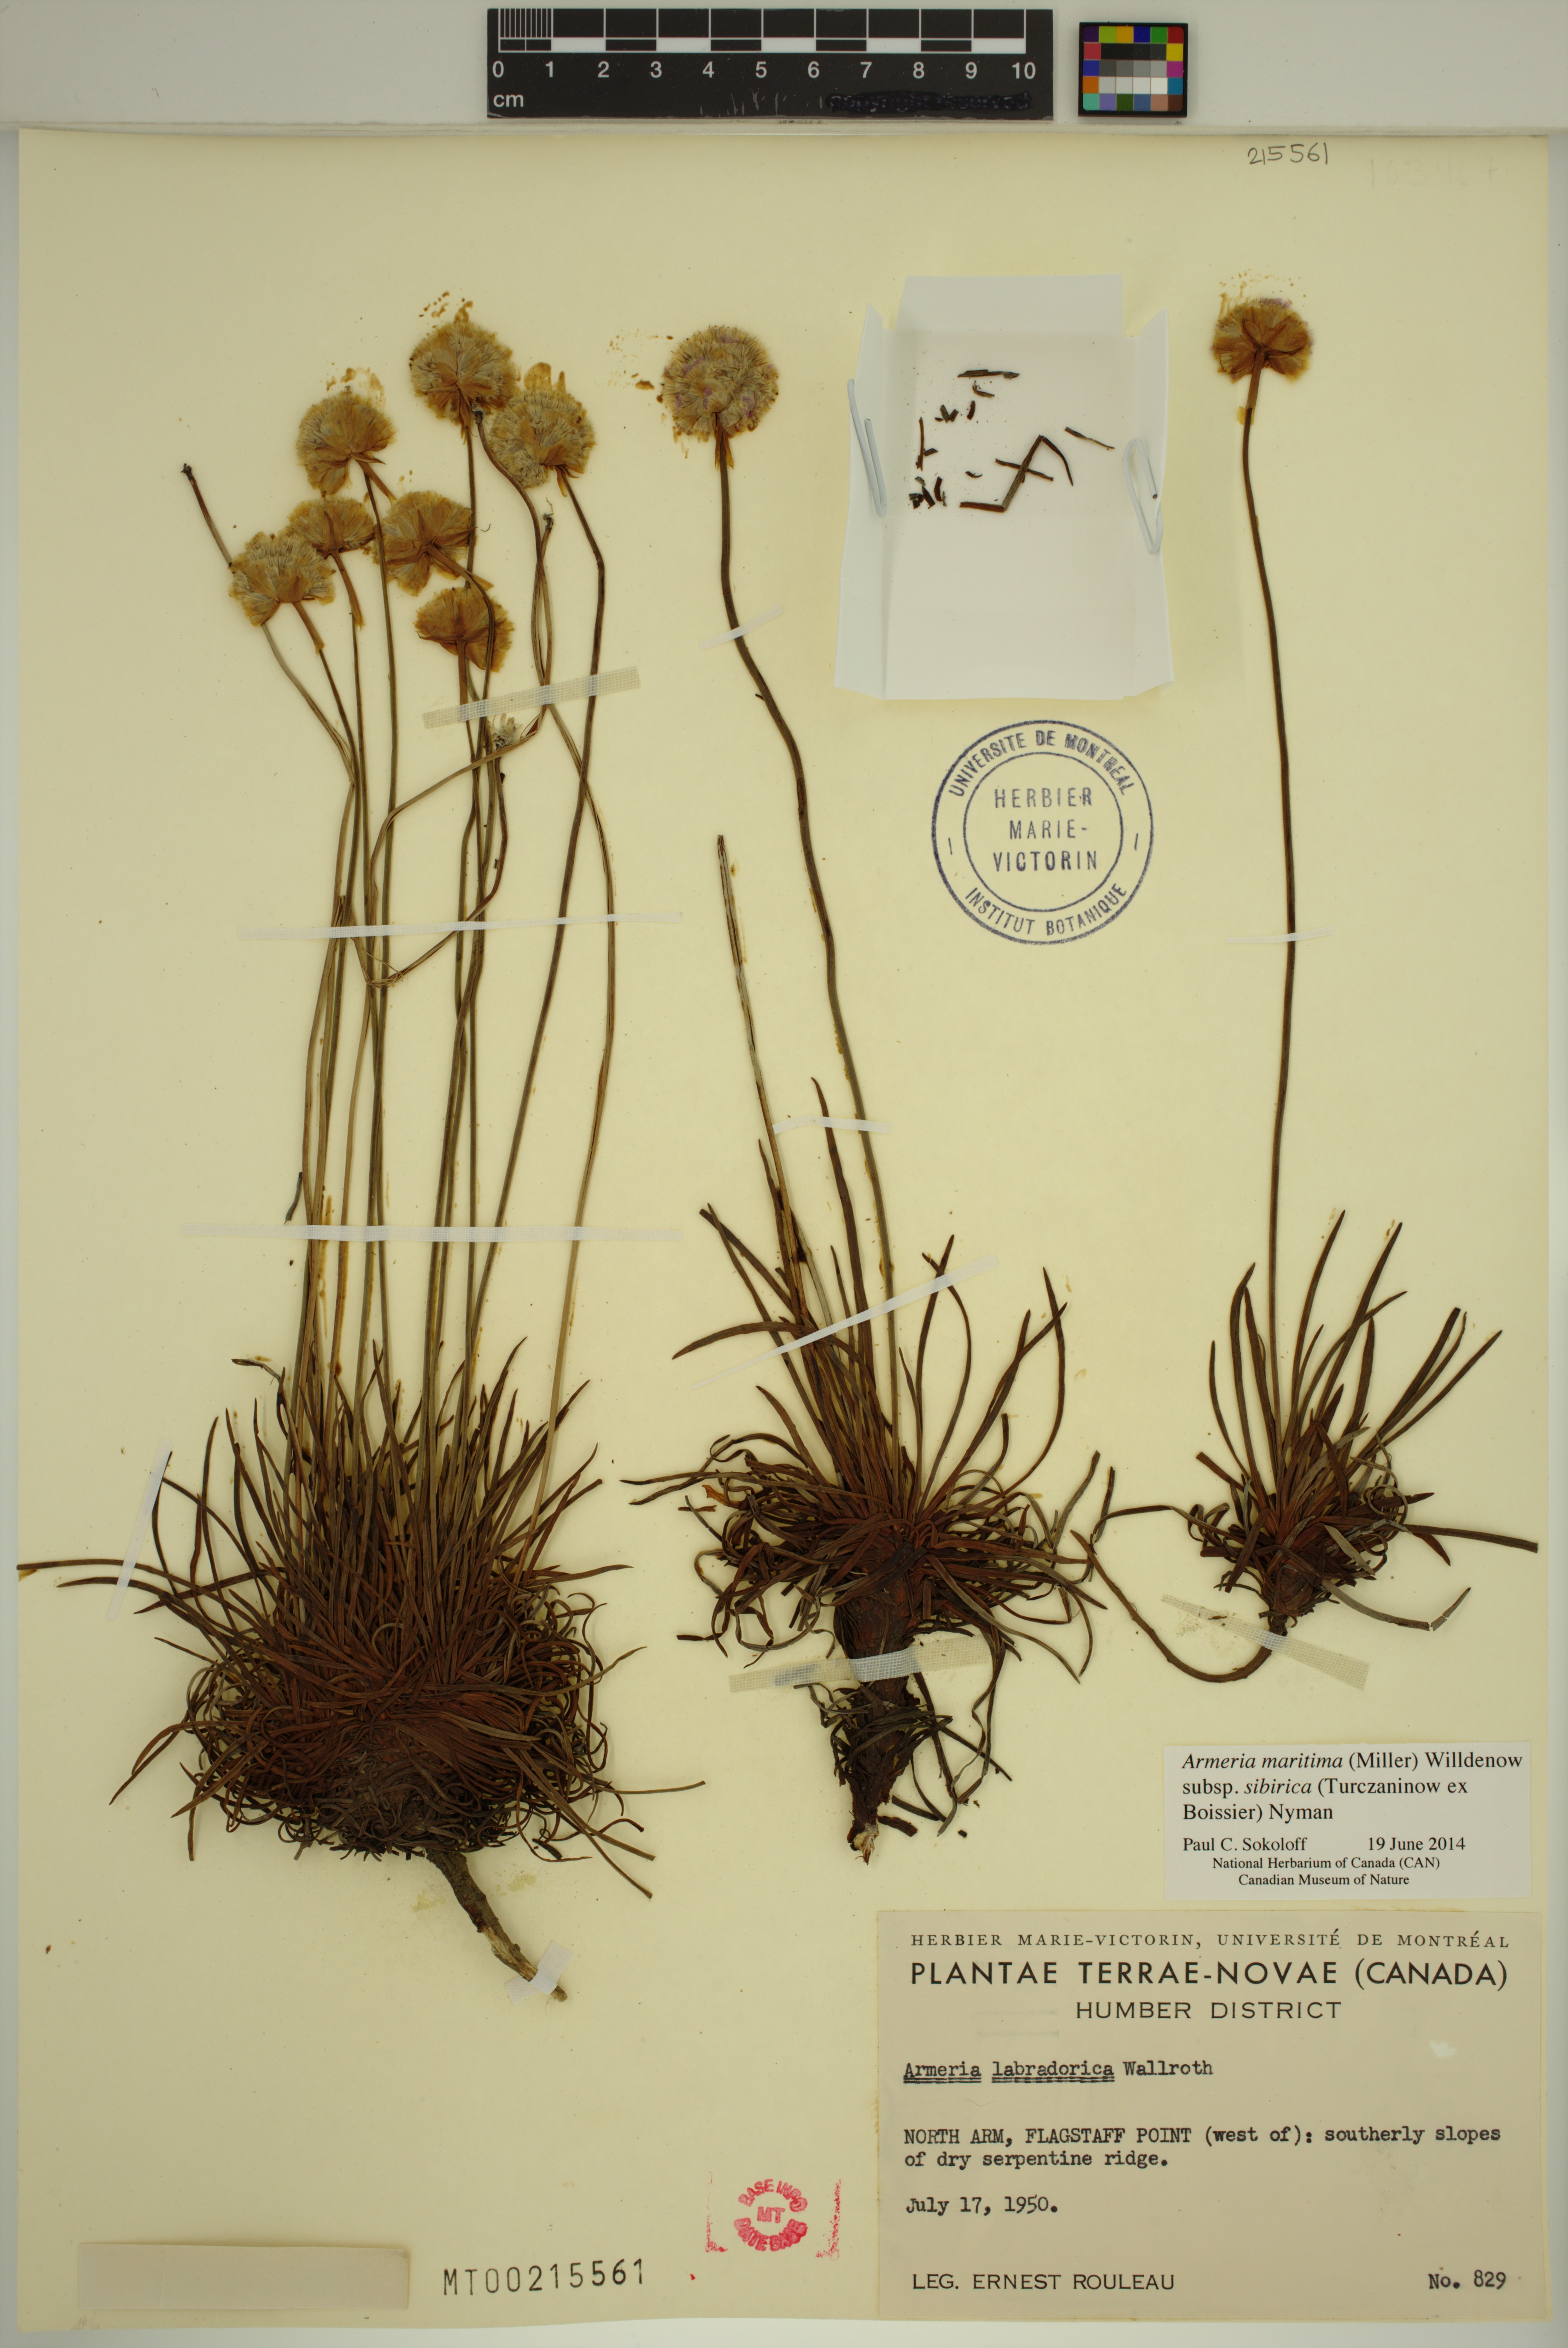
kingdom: Plantae
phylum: Tracheophyta
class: Magnoliopsida
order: Caryophyllales
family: Plumbaginaceae
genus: Armeria
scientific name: Armeria maritima
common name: Thrift
